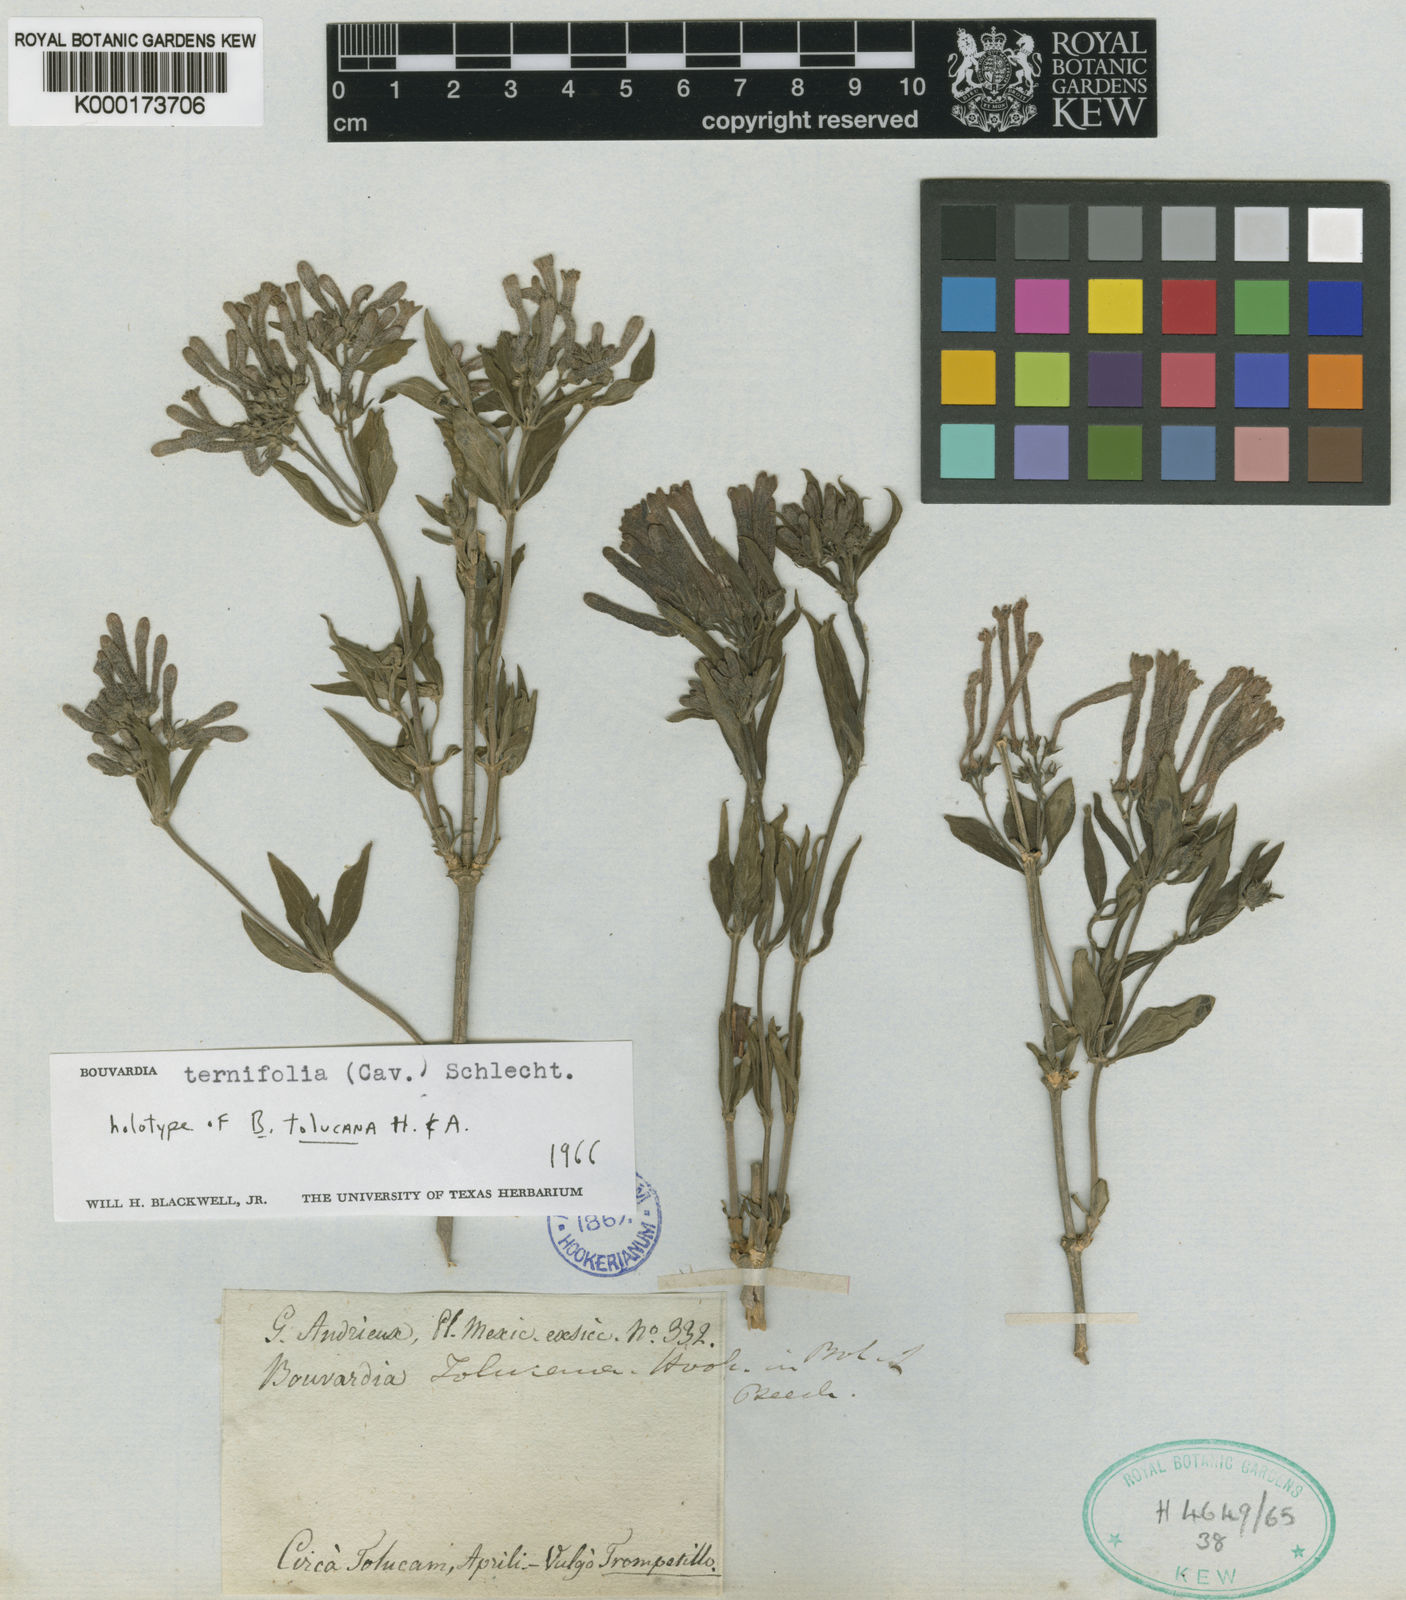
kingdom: Plantae
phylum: Tracheophyta
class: Magnoliopsida
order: Gentianales
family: Rubiaceae
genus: Bouvardia
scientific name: Bouvardia ternifolia
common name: Scarlet bouvardia
